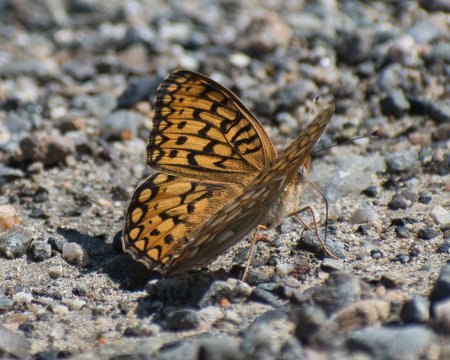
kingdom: Animalia
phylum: Arthropoda
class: Insecta
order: Lepidoptera
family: Nymphalidae
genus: Speyeria
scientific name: Speyeria callippe
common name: Callippe Fritillary
